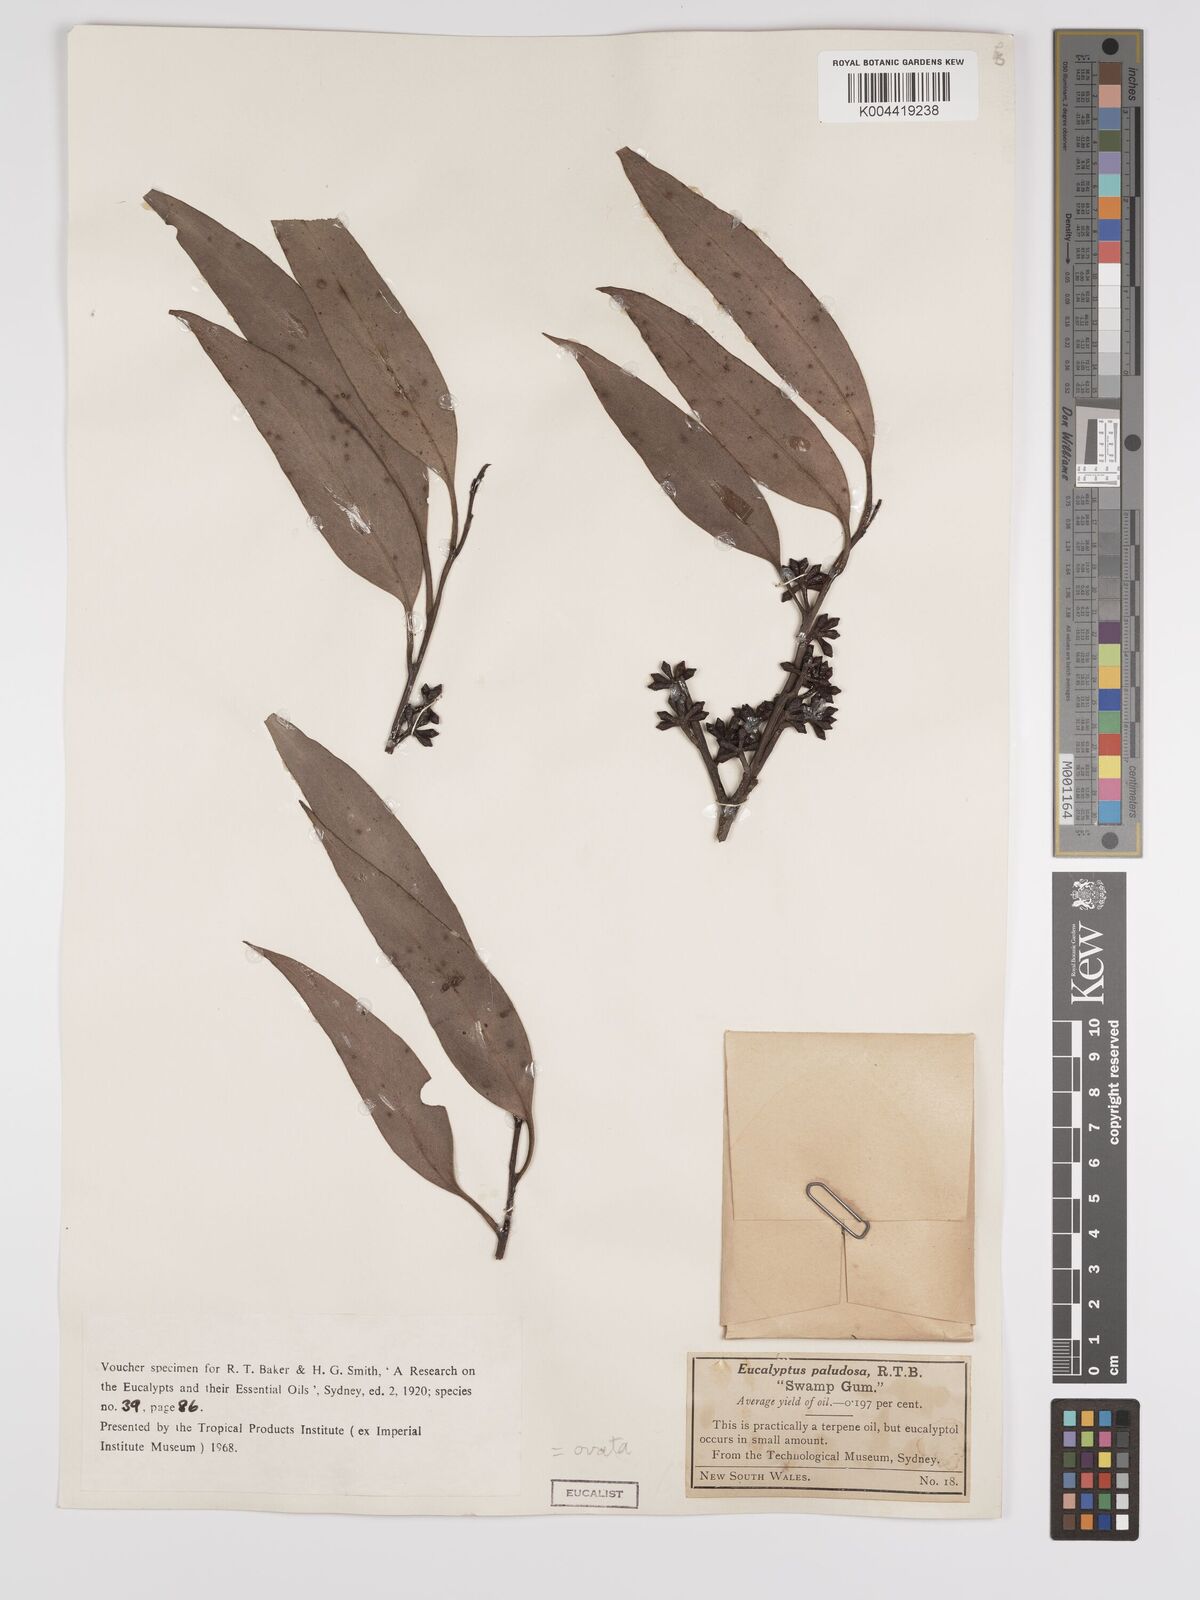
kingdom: Plantae
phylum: Tracheophyta
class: Magnoliopsida
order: Myrtales
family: Myrtaceae
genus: Eucalyptus
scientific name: Eucalyptus
